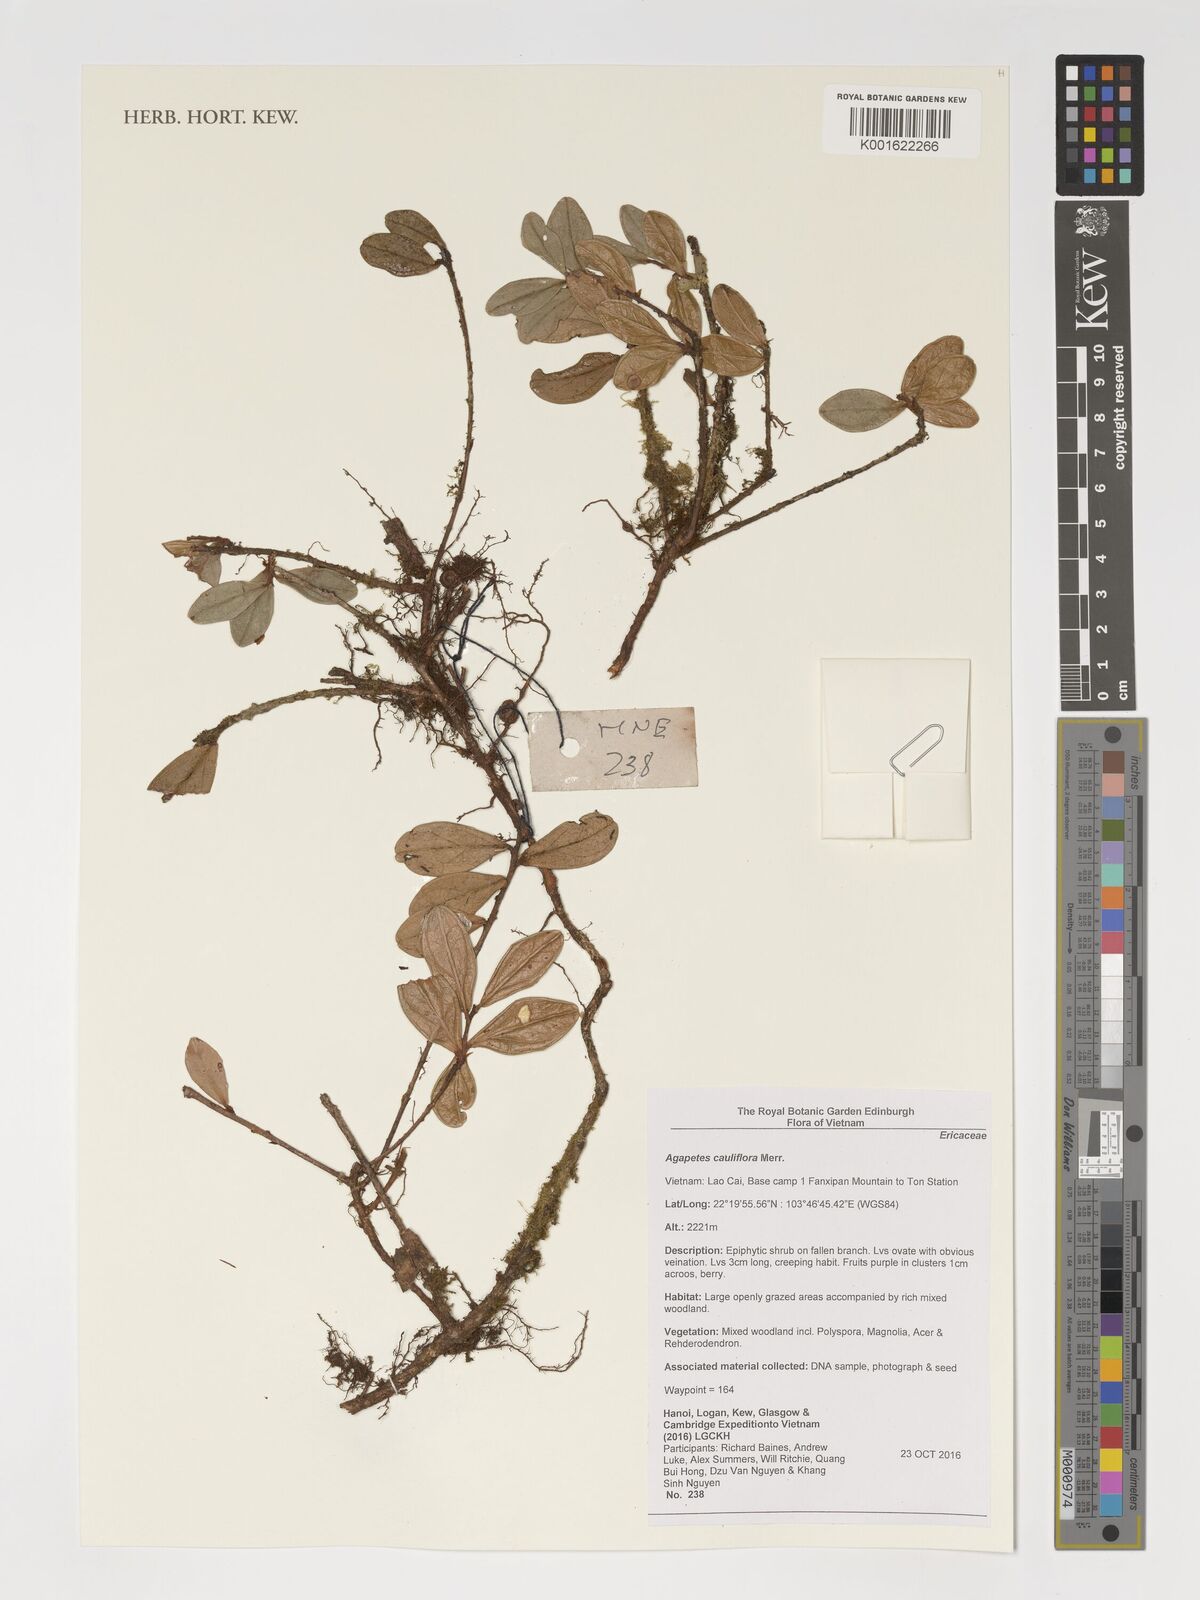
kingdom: Plantae
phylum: Tracheophyta
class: Magnoliopsida
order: Ericales
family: Ericaceae
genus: Agapetes
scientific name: Agapetes cauliflora
